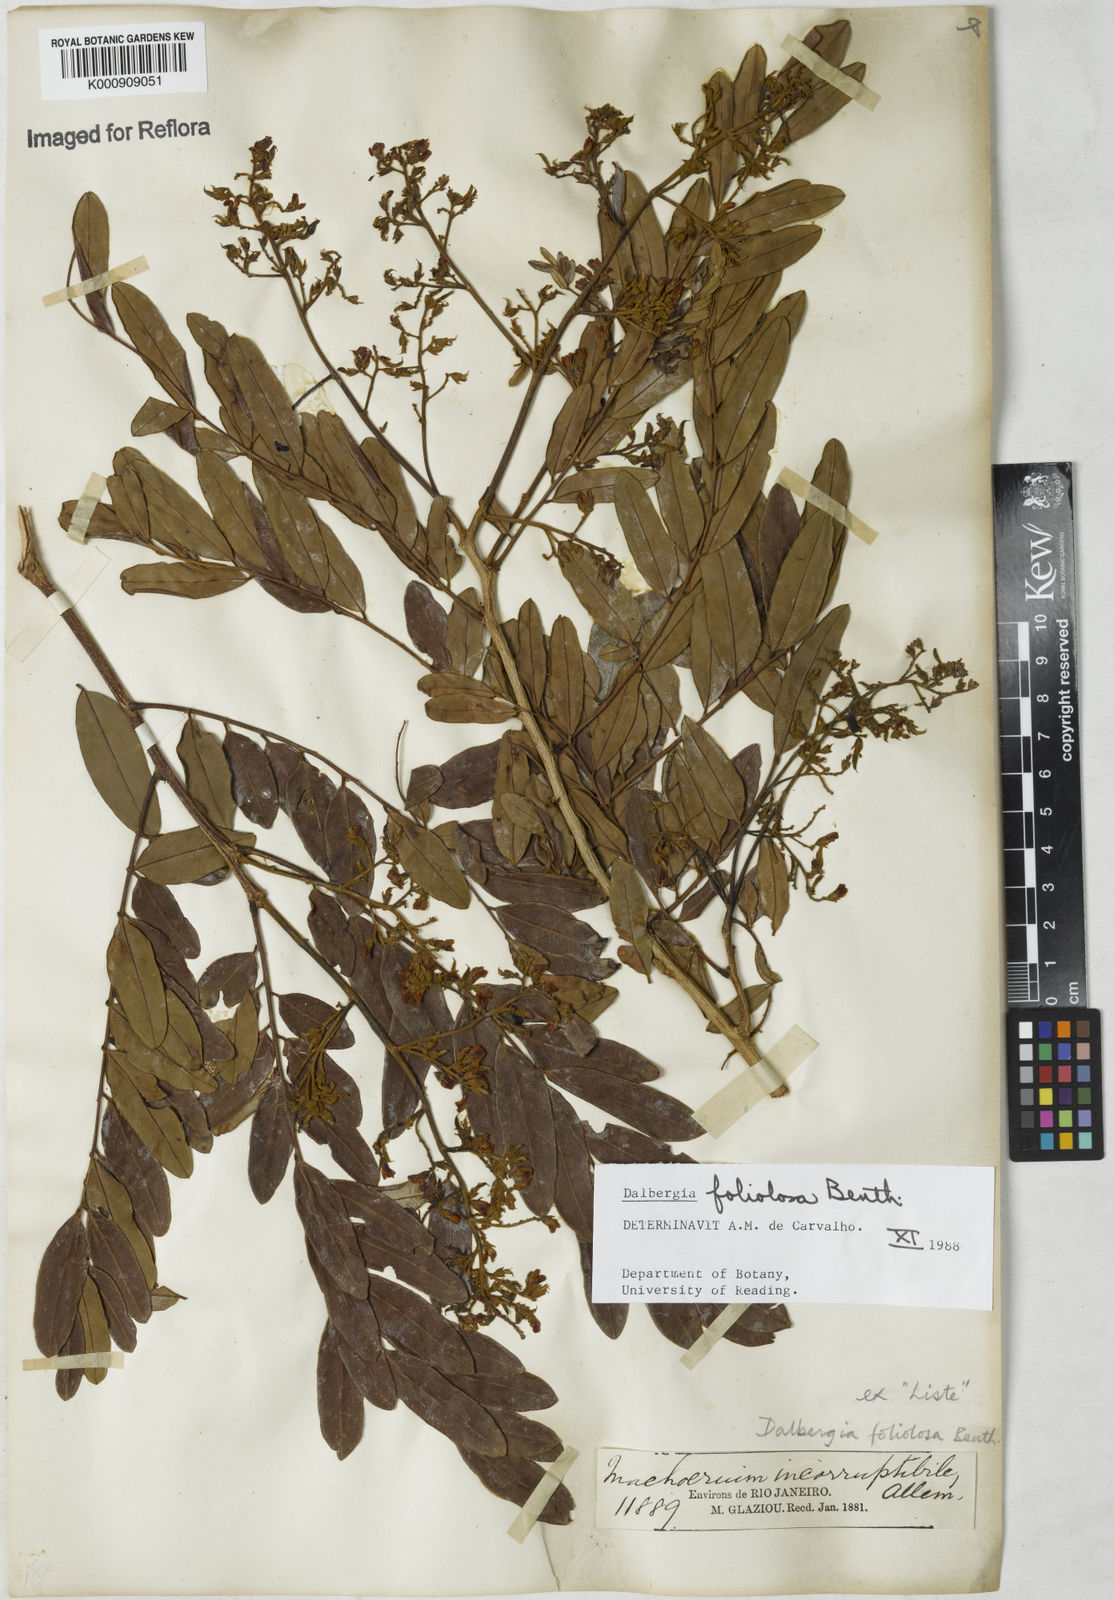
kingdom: Plantae
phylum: Tracheophyta
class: Magnoliopsida
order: Fabales
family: Fabaceae
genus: Dalbergia
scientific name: Dalbergia foliolosa
